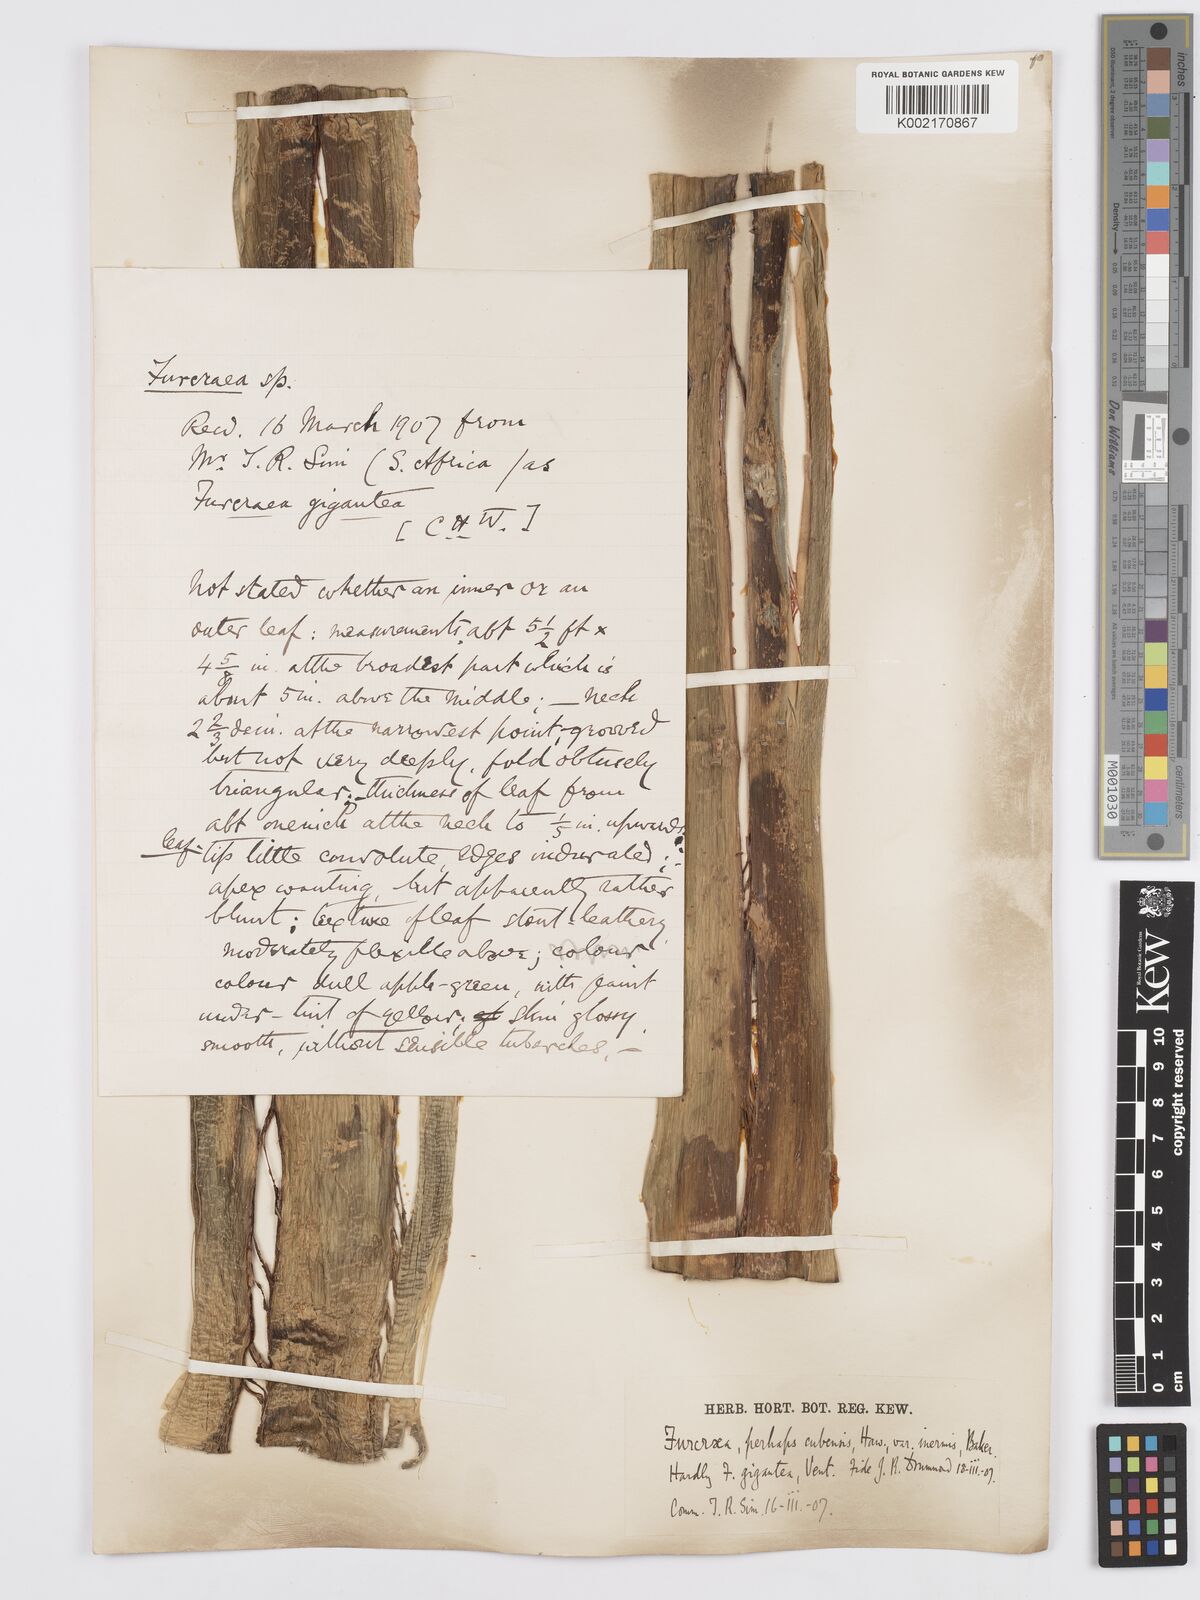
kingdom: Plantae
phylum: Tracheophyta
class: Liliopsida
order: Asparagales
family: Asparagaceae
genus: Furcraea
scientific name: Furcraea hexapetala
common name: Cuban-hemp
